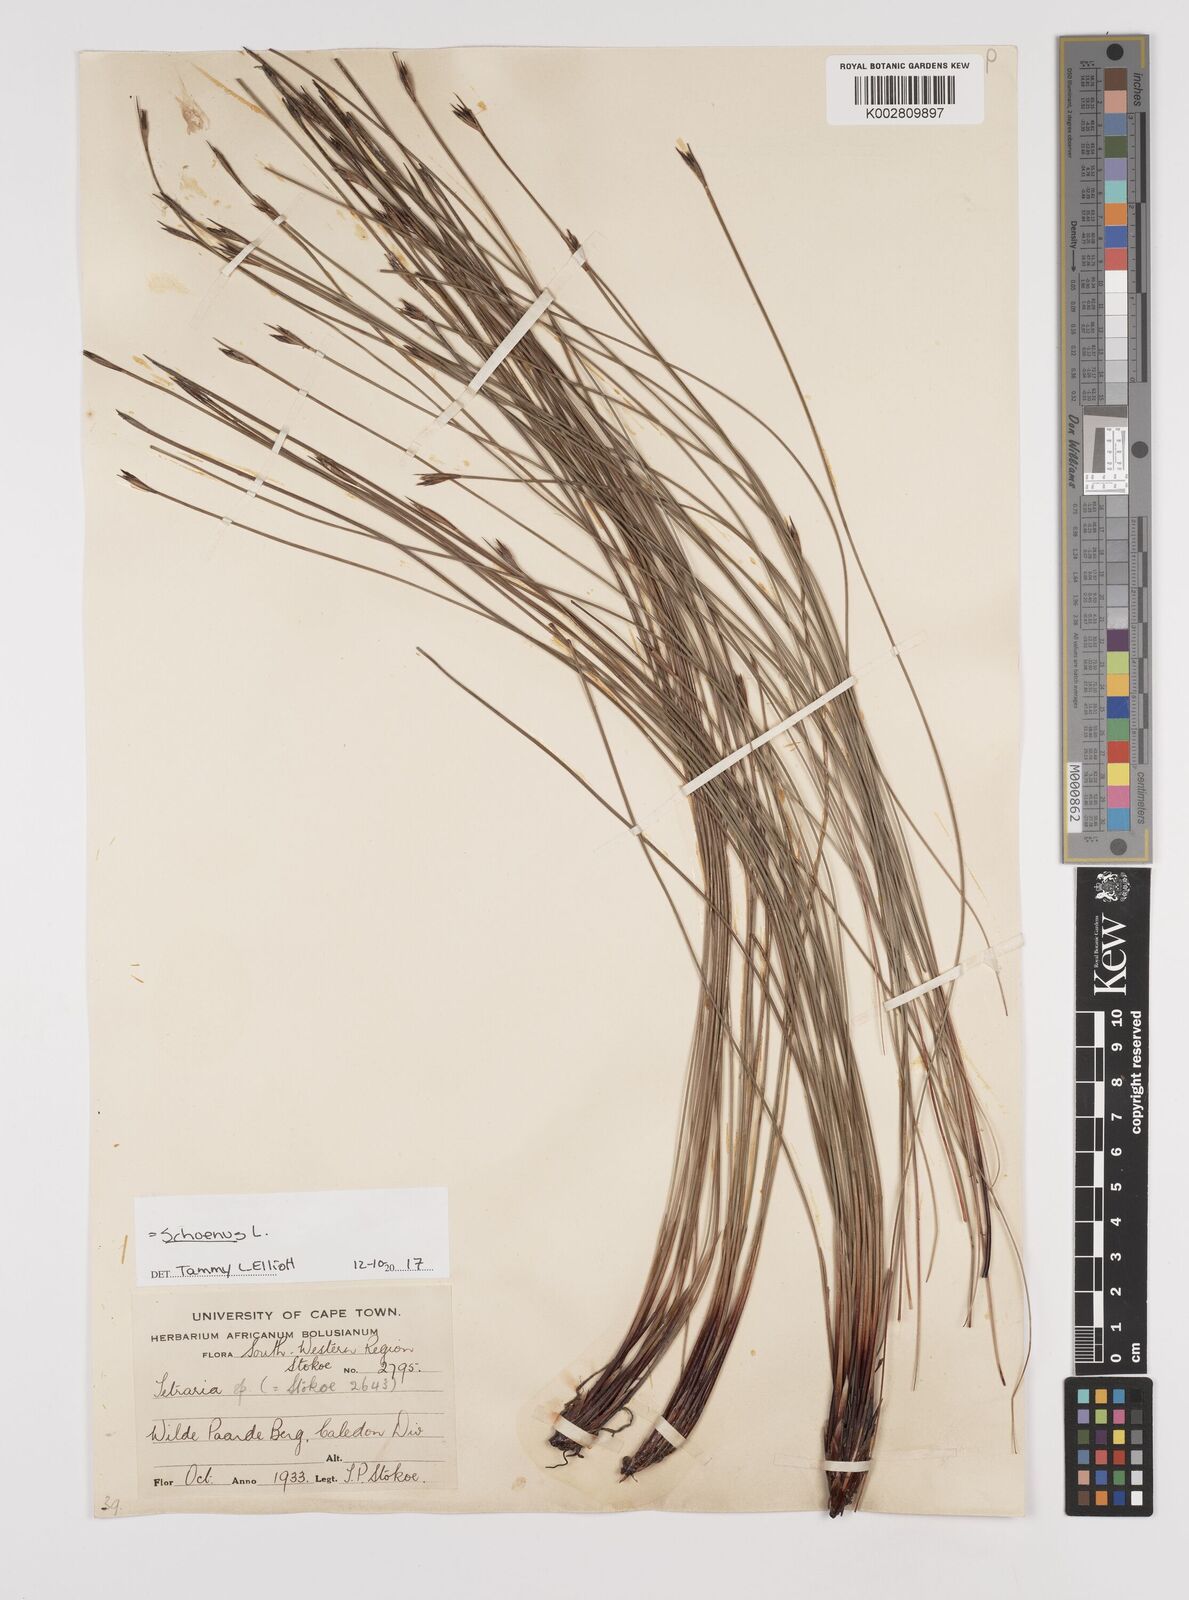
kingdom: Plantae
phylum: Tracheophyta
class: Liliopsida
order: Poales
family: Cyperaceae
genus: Schoenus
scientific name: Schoenus
